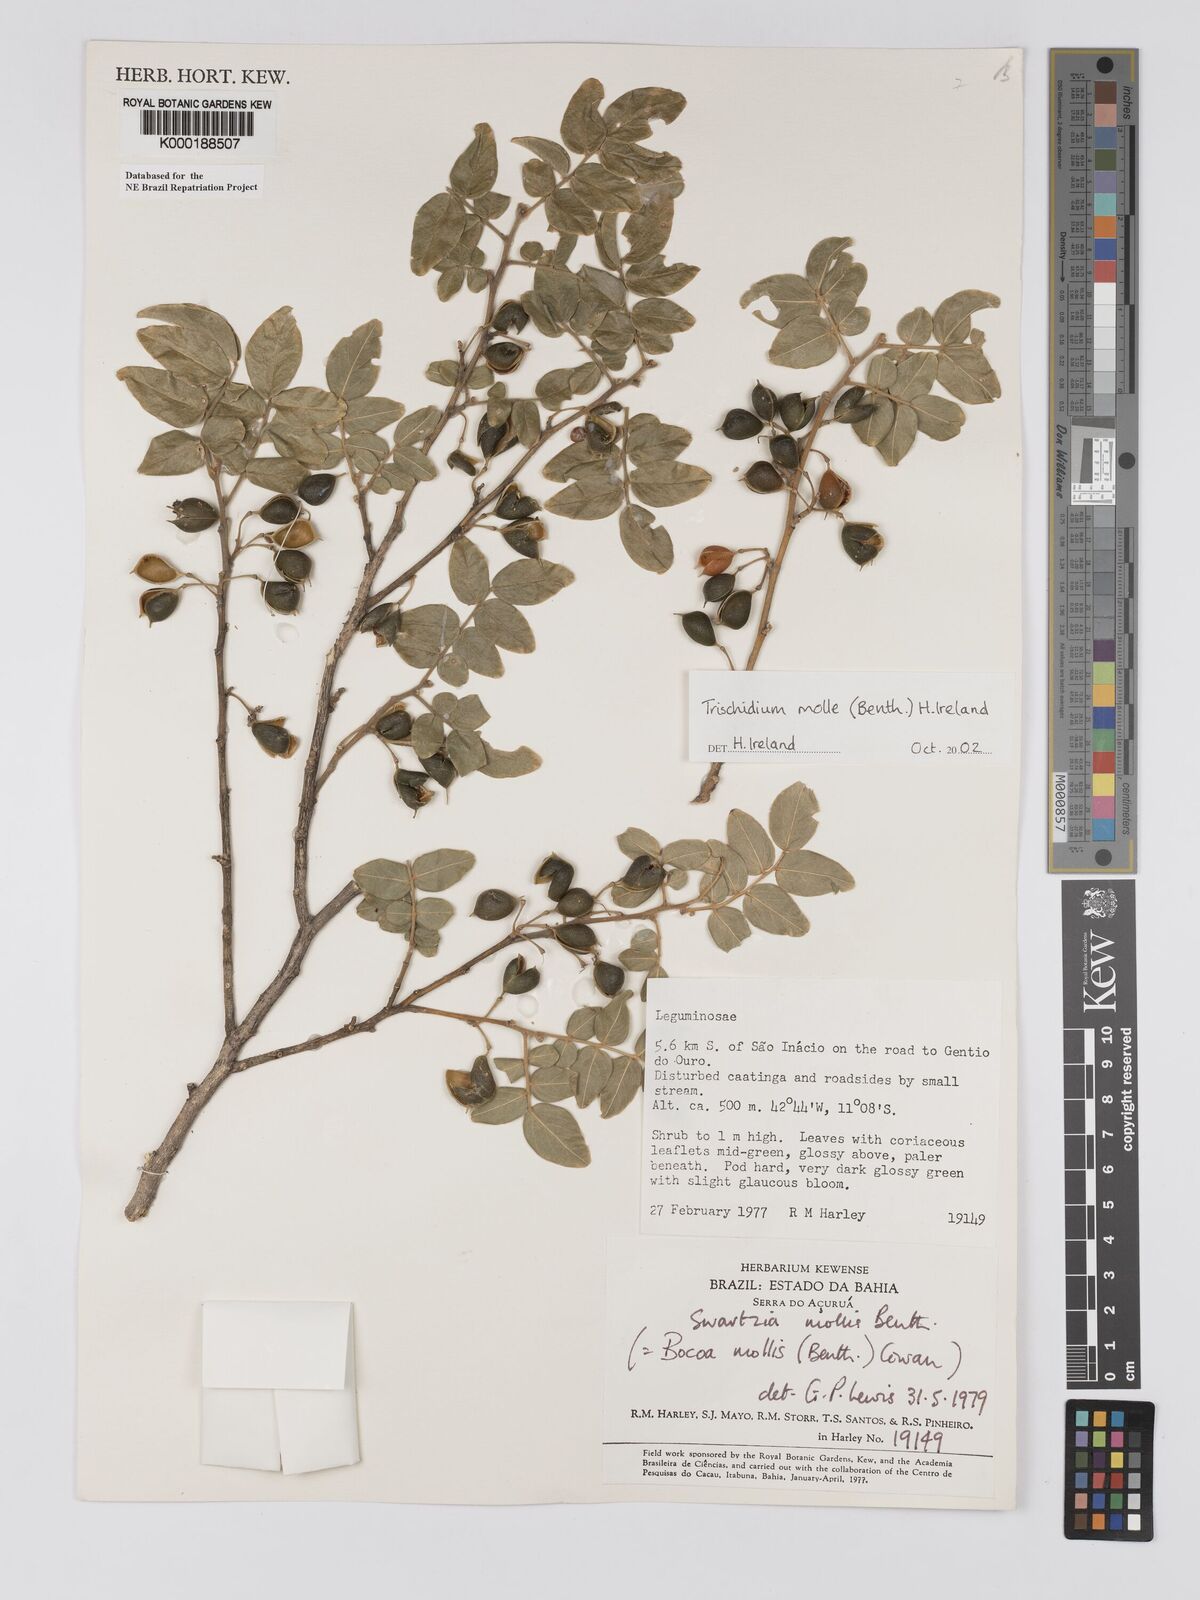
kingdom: Plantae
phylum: Tracheophyta
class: Magnoliopsida
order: Fabales
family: Fabaceae
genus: Trischidium
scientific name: Trischidium
